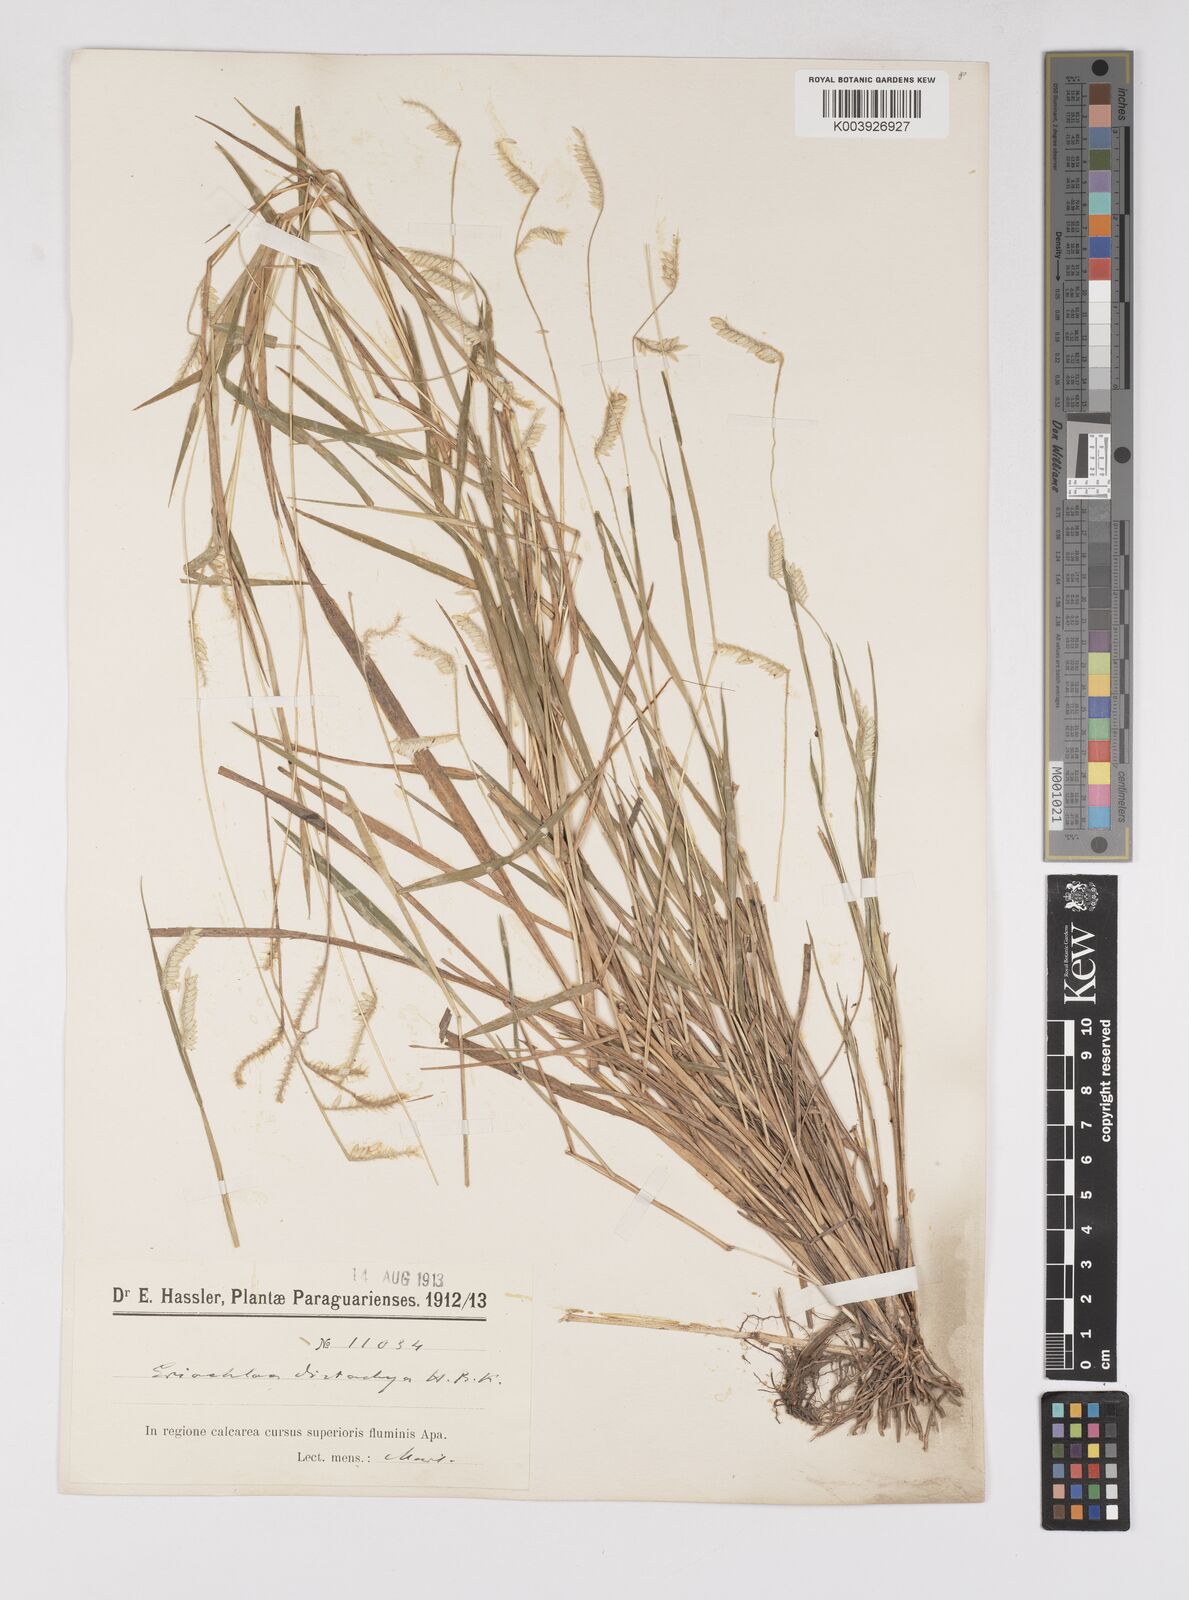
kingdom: Plantae
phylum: Tracheophyta
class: Liliopsida
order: Poales
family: Poaceae
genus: Eriochloa
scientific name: Eriochloa distachya
